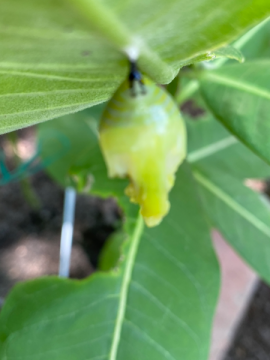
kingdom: Animalia
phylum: Arthropoda
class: Insecta
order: Lepidoptera
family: Nymphalidae
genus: Danaus
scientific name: Danaus plexippus
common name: Monarch
